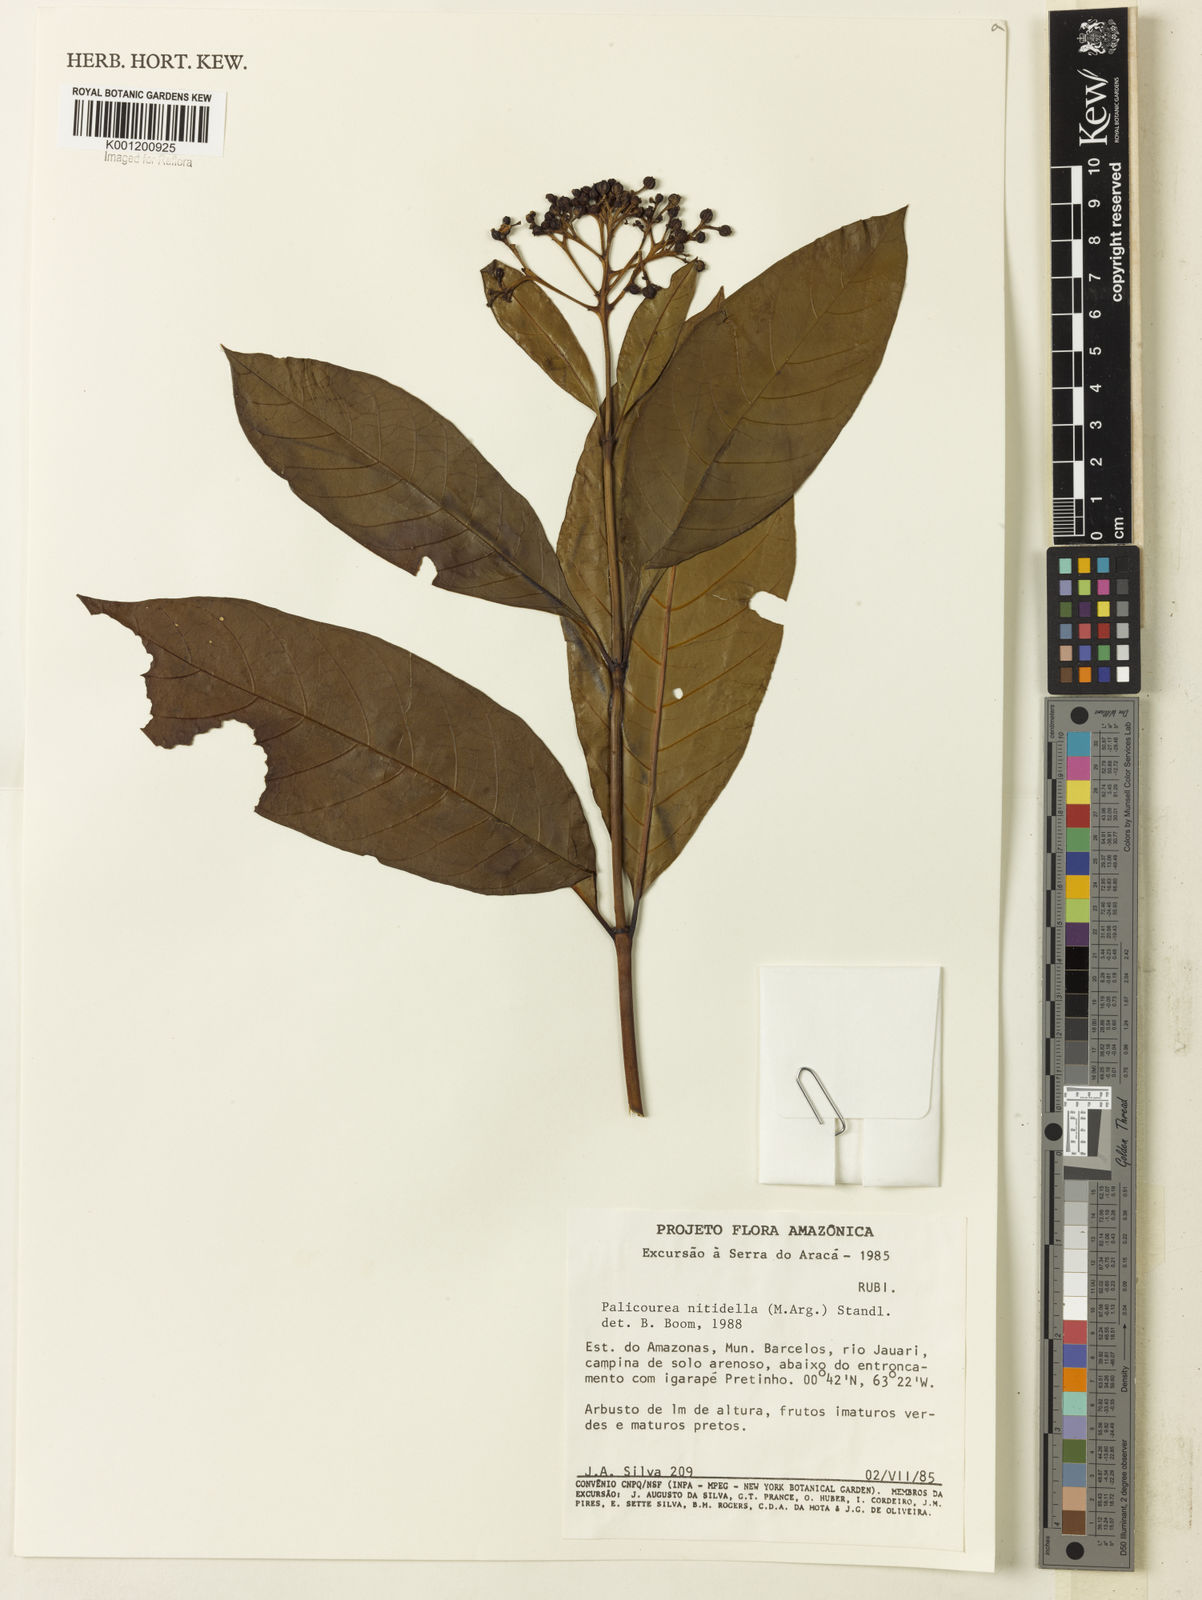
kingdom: Plantae
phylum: Tracheophyta
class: Magnoliopsida
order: Gentianales
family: Rubiaceae
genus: Palicourea
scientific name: Palicourea
